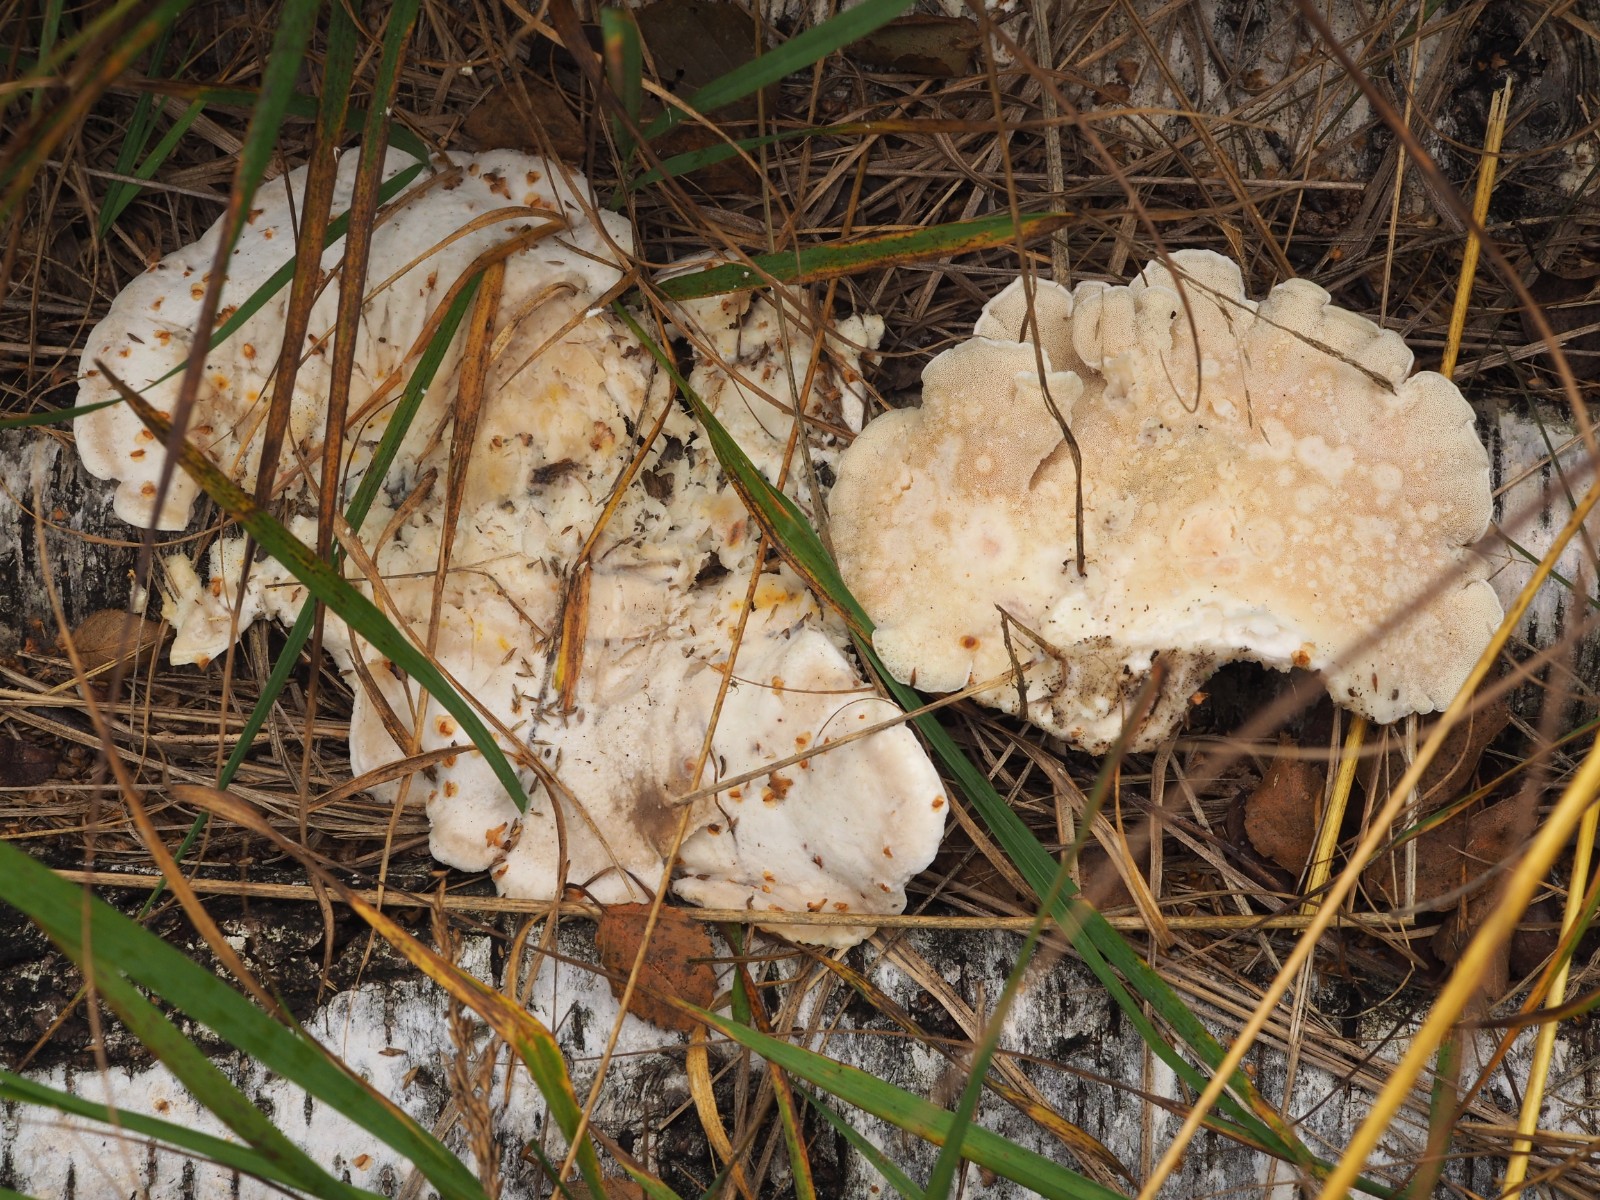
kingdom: Fungi
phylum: Basidiomycota
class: Agaricomycetes
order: Polyporales
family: Incrustoporiaceae
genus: Tyromyces
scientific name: Tyromyces chioneus
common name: stor blødporesvamp
